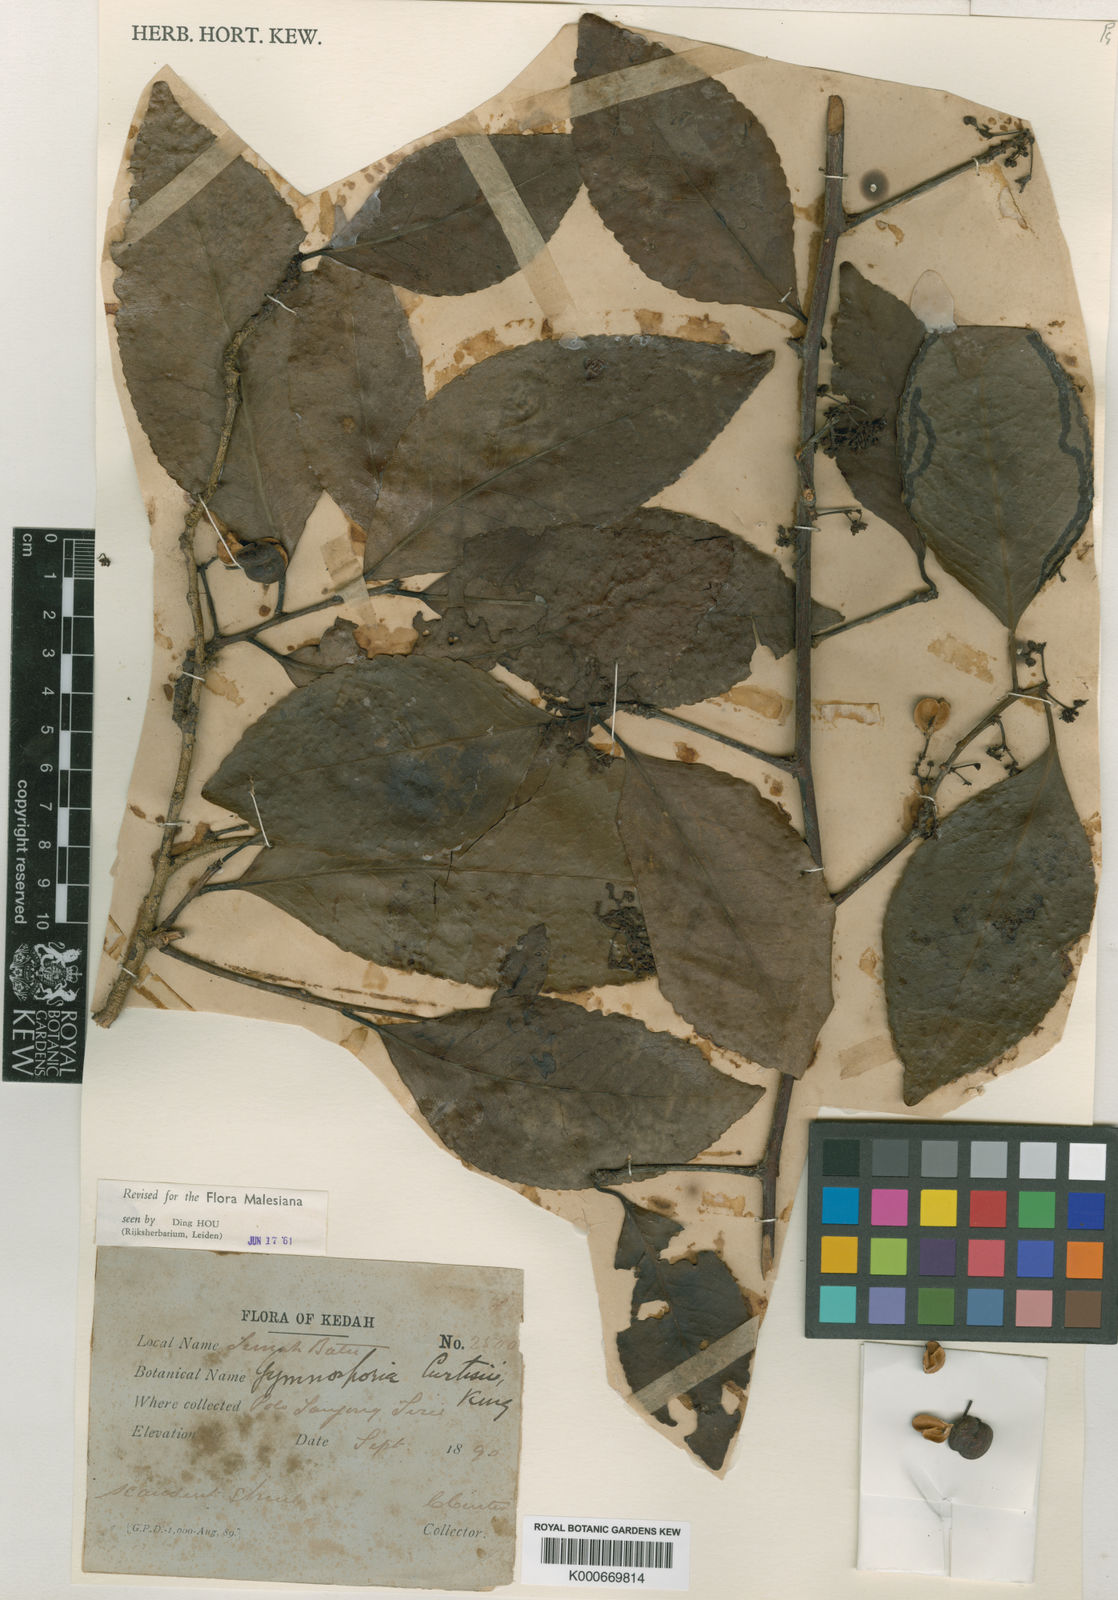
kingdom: Plantae
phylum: Tracheophyta
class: Magnoliopsida
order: Celastrales
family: Celastraceae
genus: Gymnosporia
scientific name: Gymnosporia stylosa
